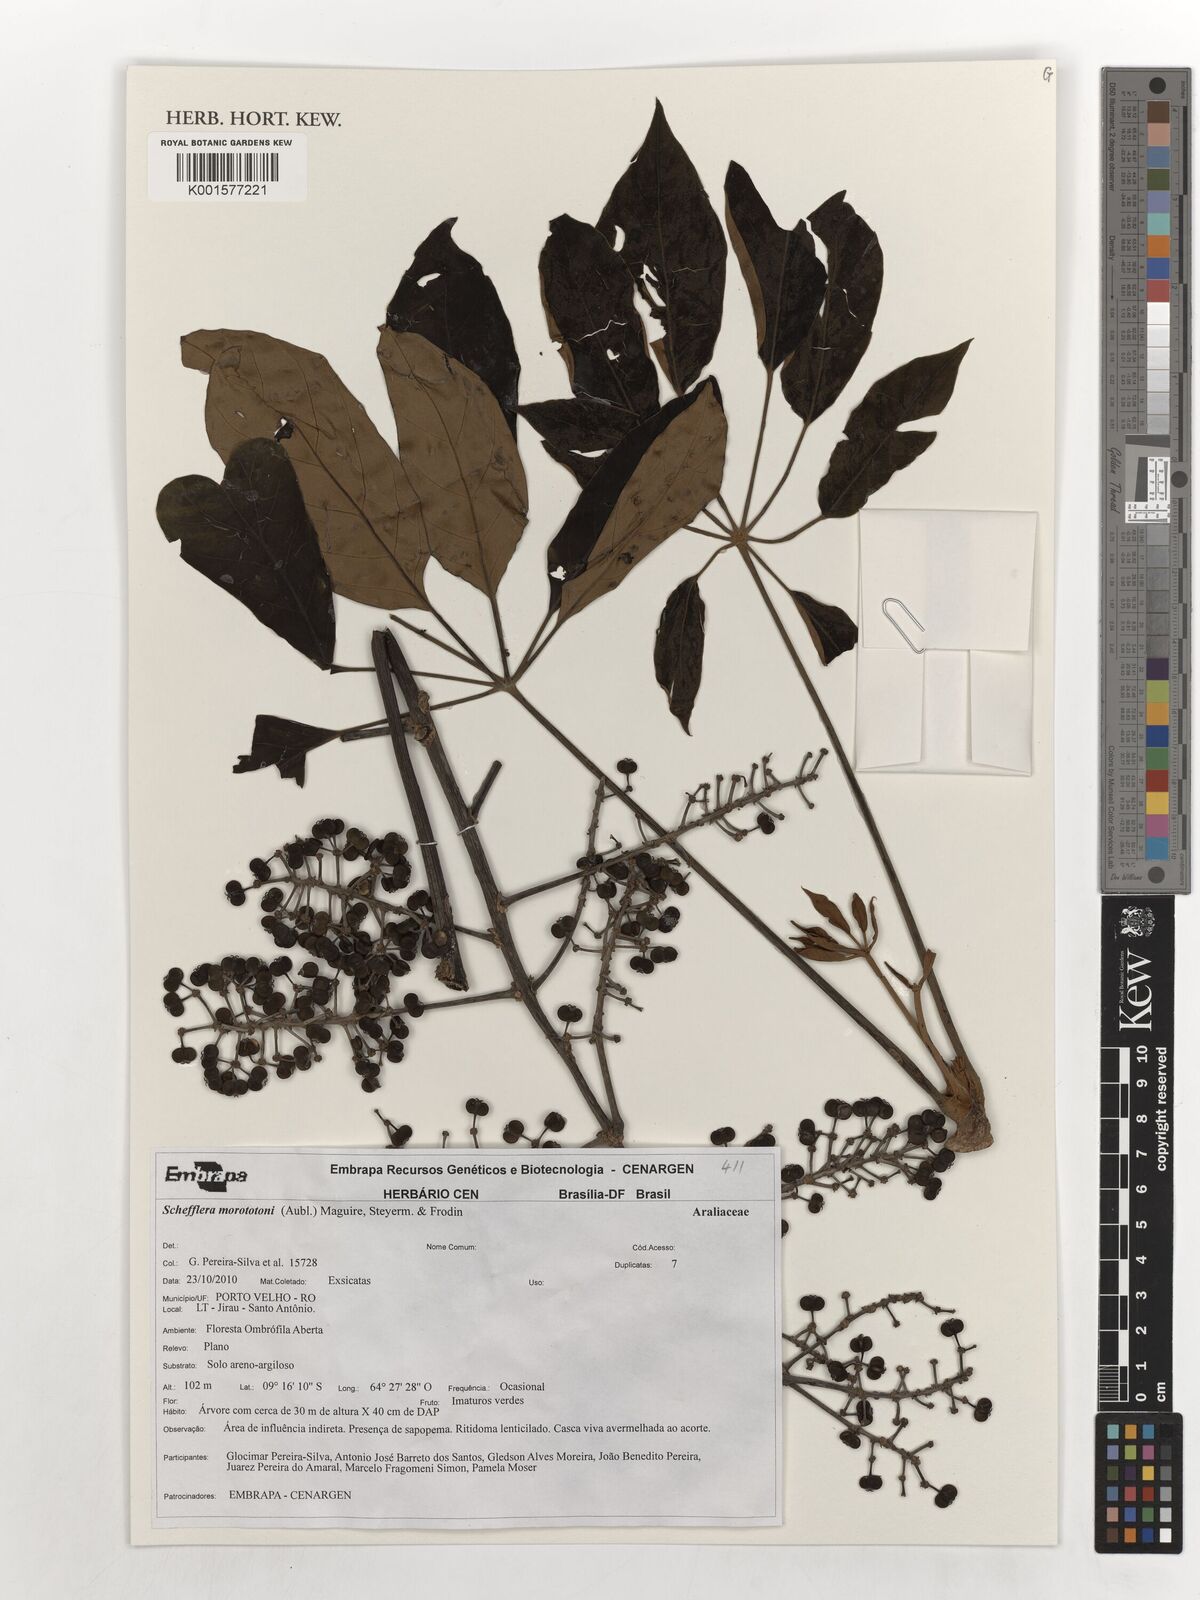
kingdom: Plantae
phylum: Tracheophyta
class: Magnoliopsida
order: Apiales
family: Araliaceae
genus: Didymopanax
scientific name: Didymopanax morototoni
